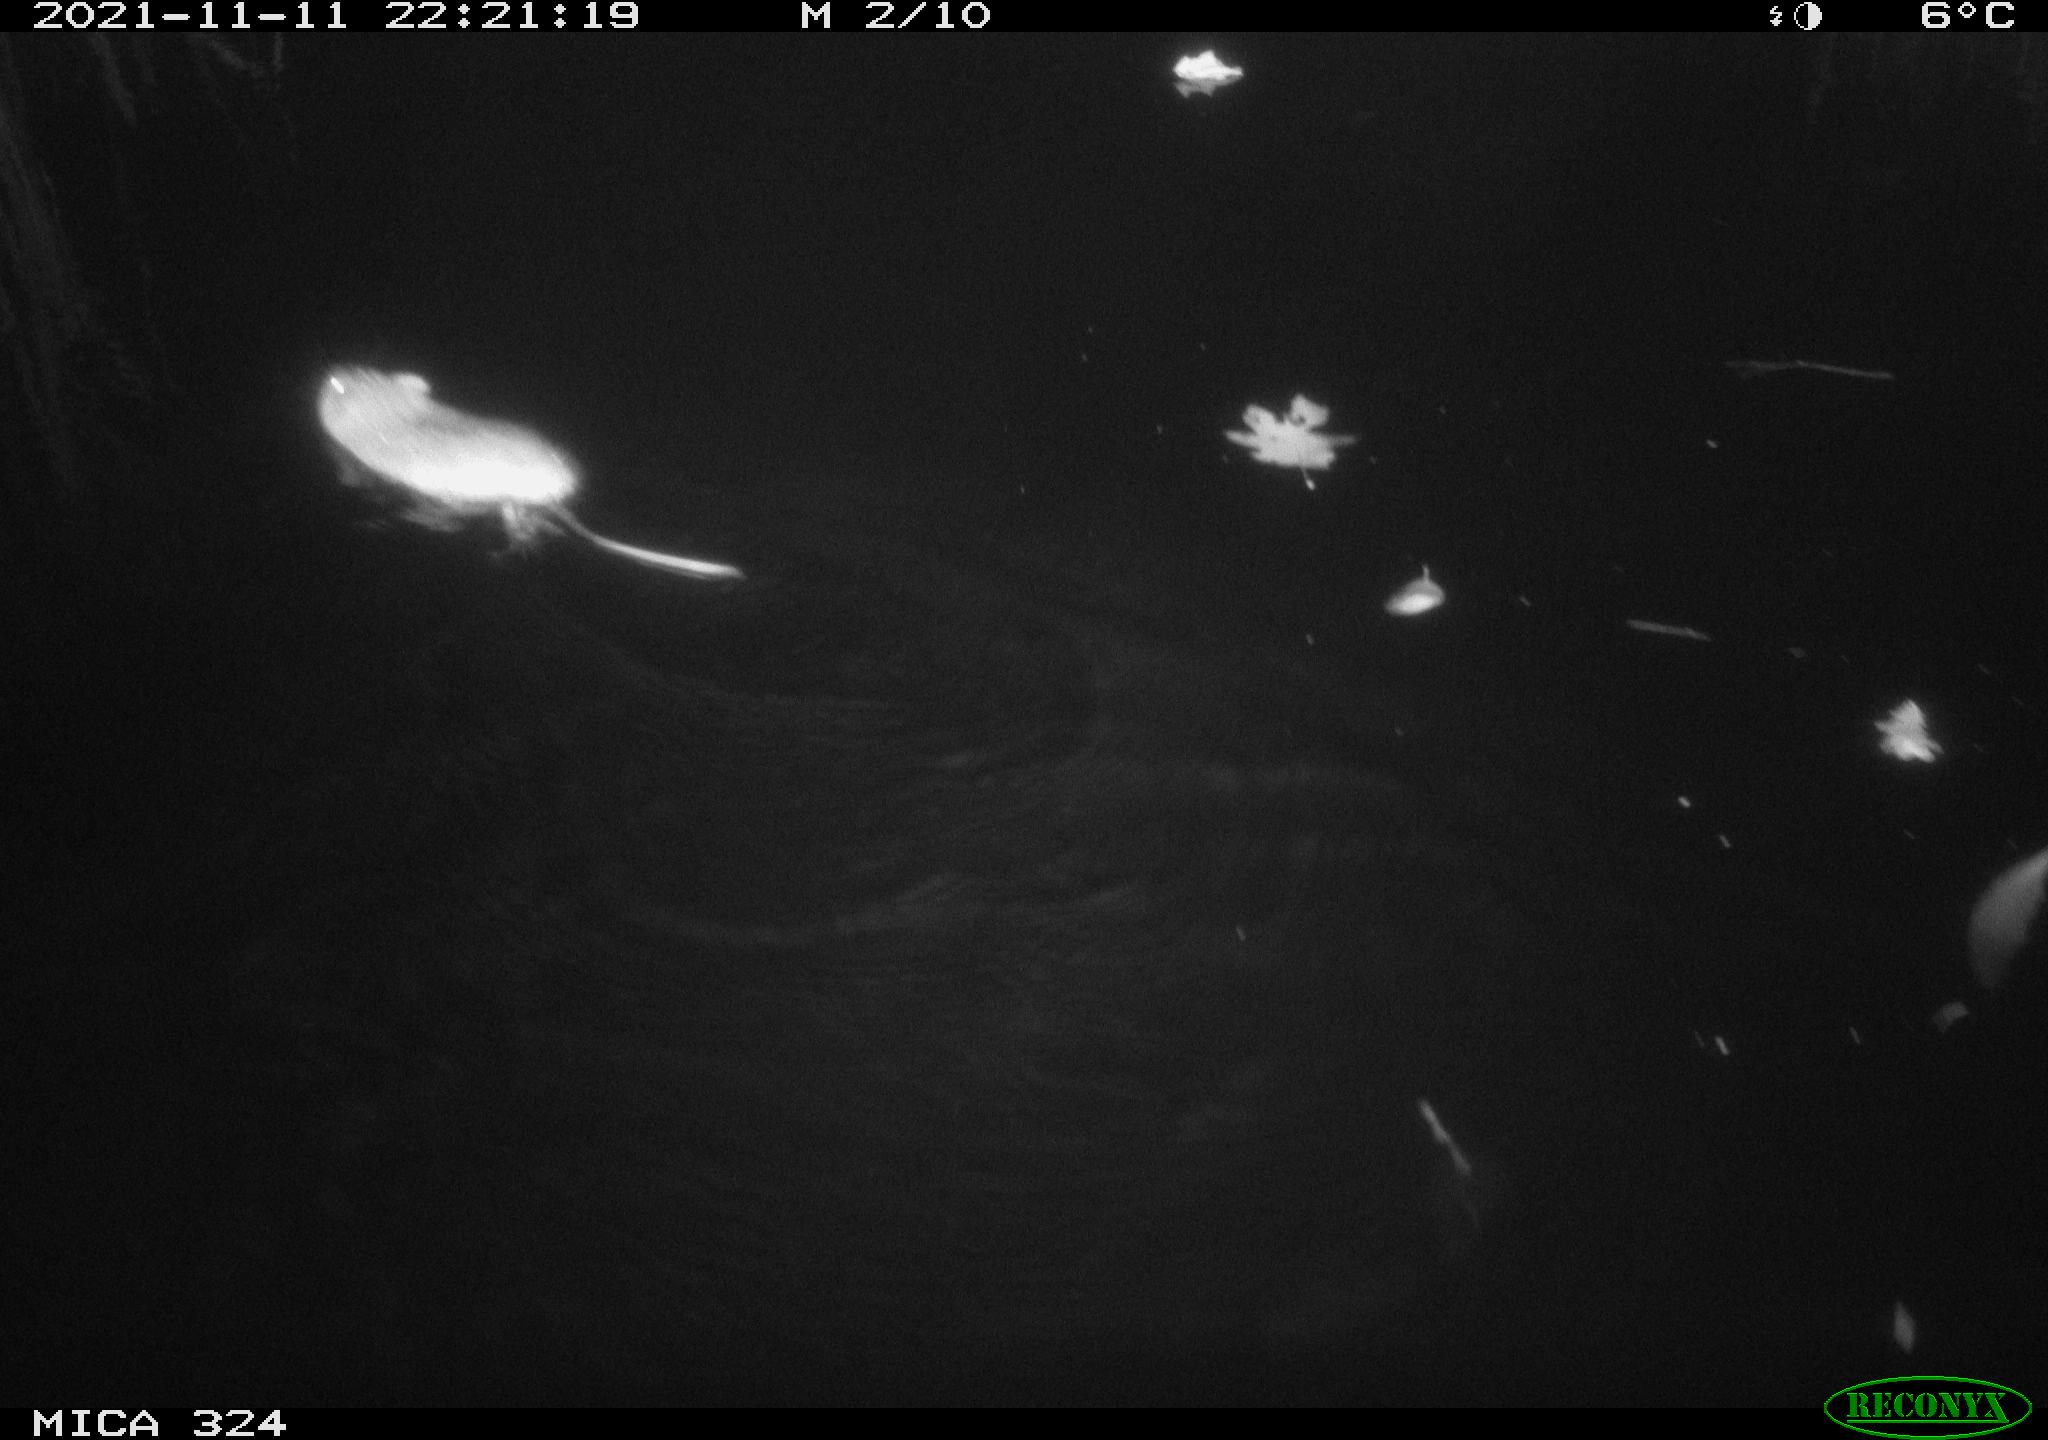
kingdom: Animalia
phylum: Chordata
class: Mammalia
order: Rodentia
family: Cricetidae
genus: Ondatra
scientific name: Ondatra zibethicus
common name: Muskrat
